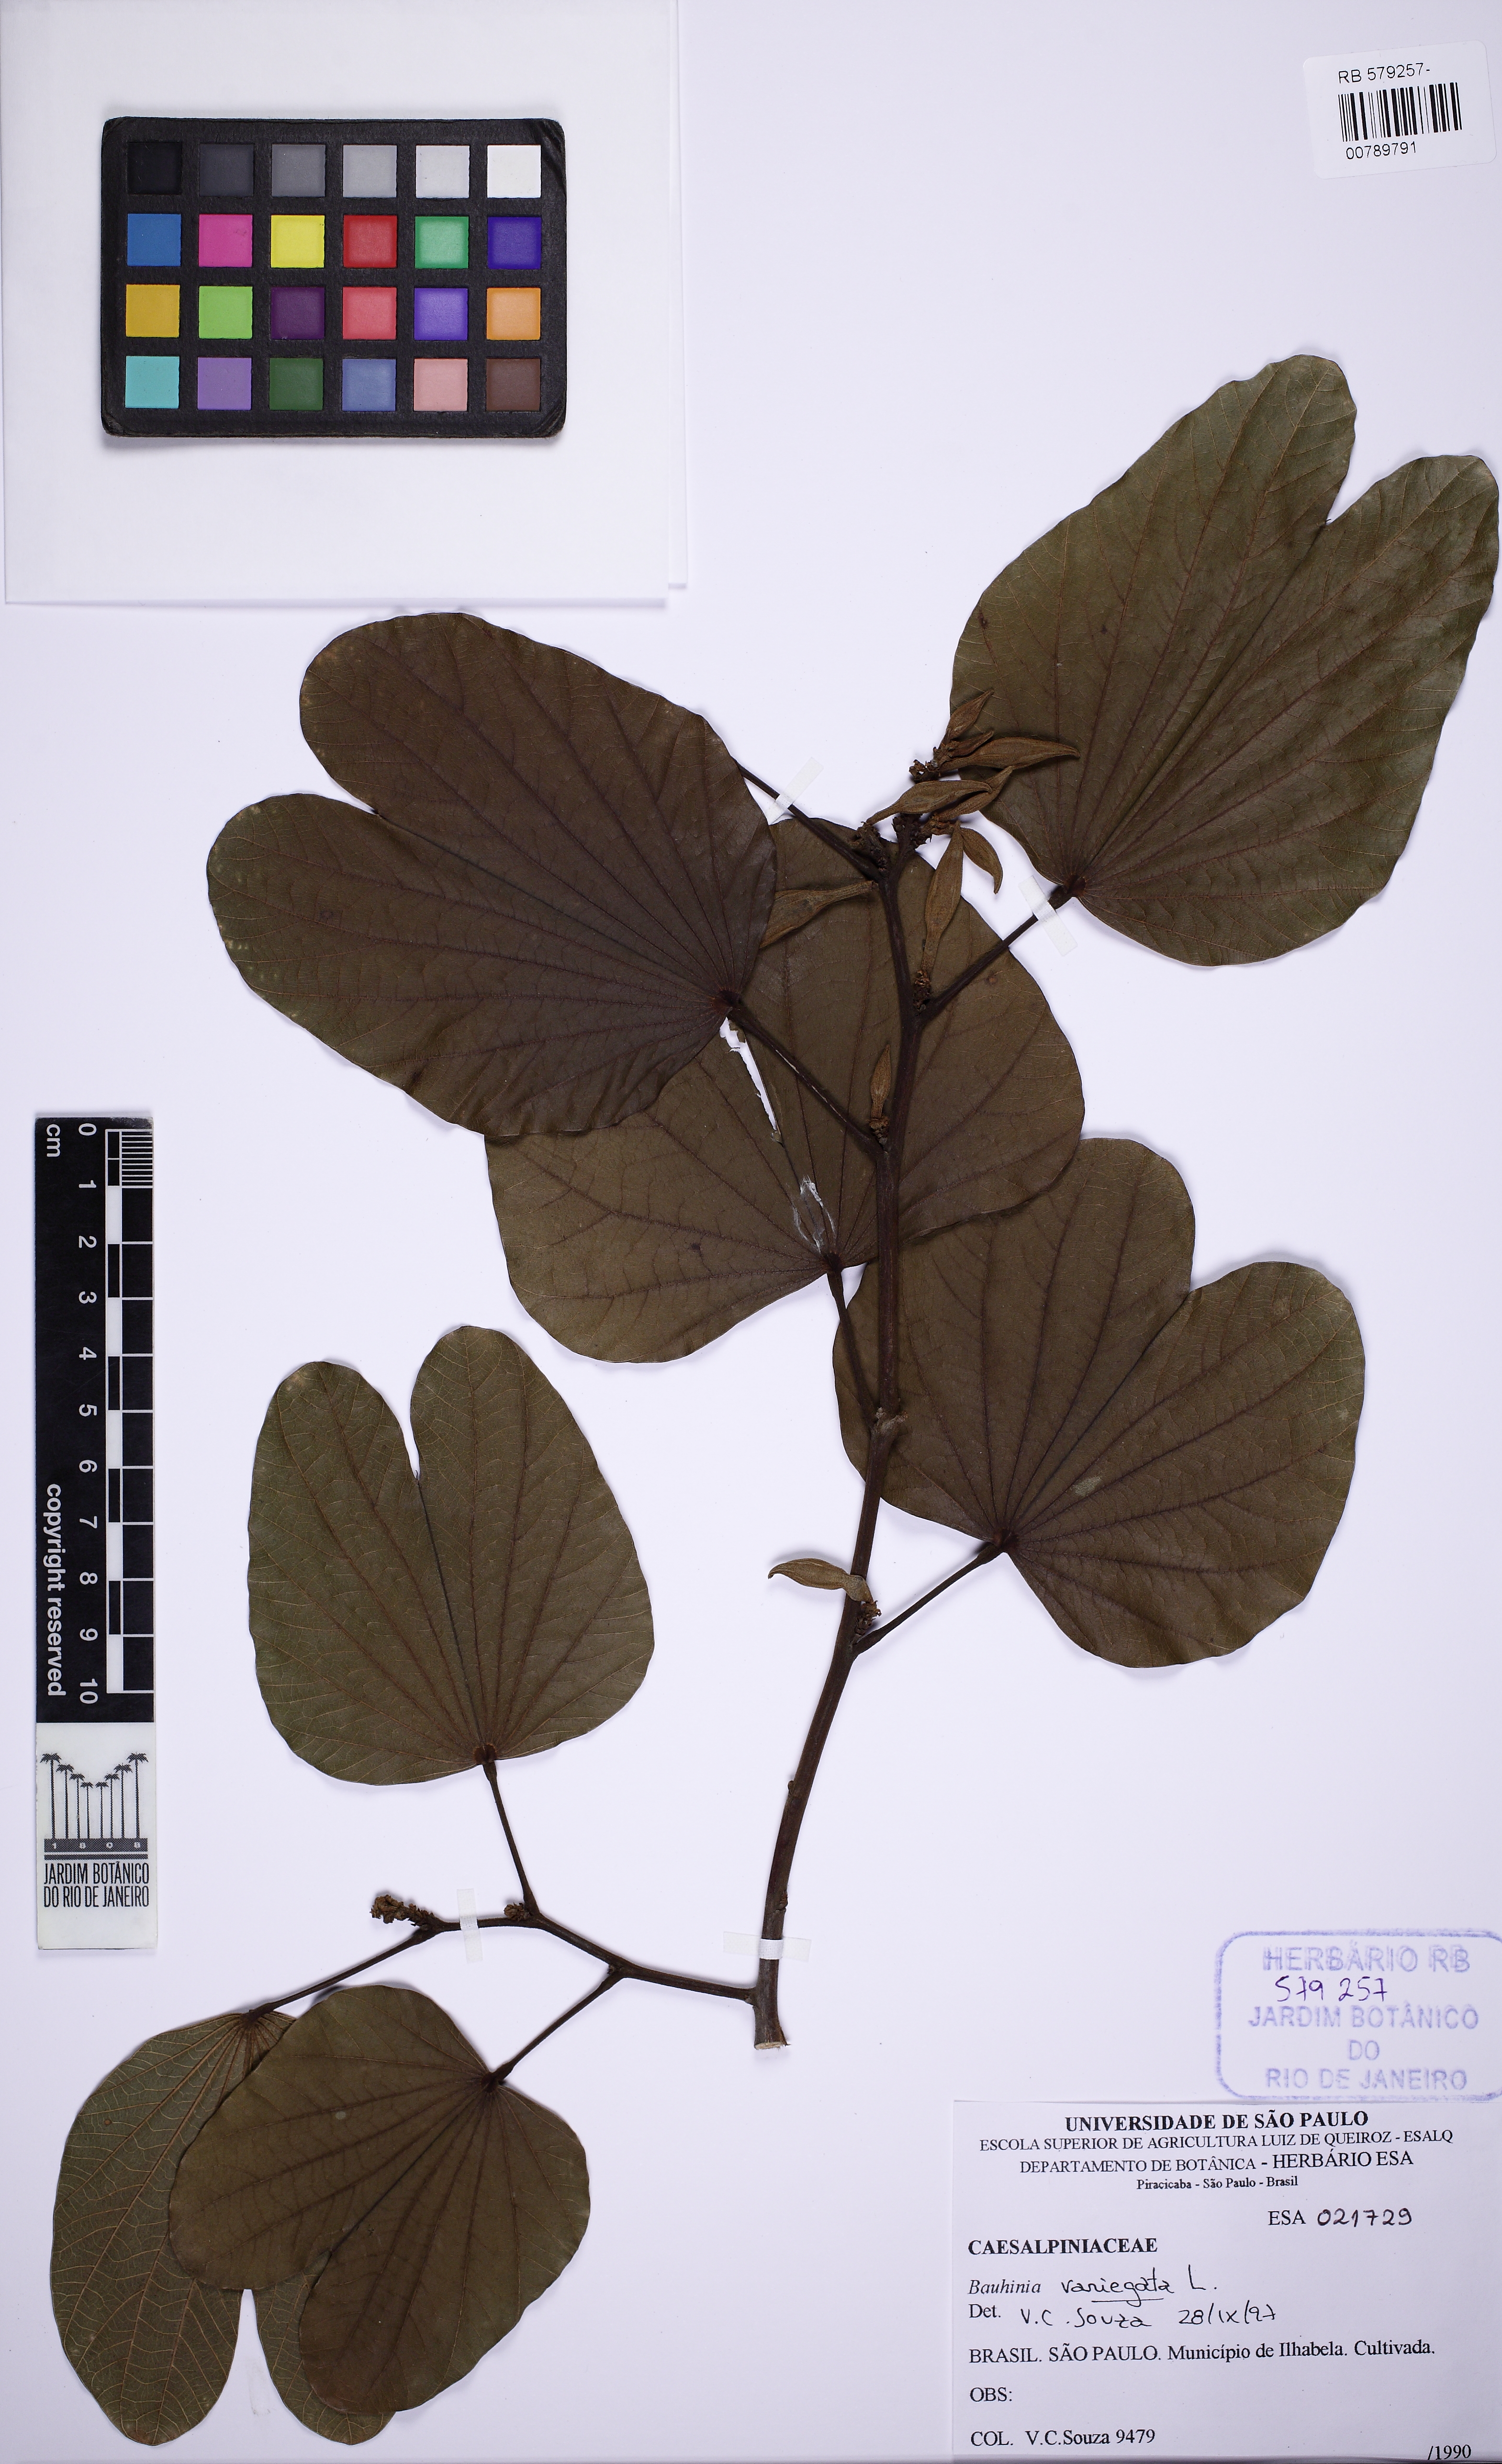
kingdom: Plantae
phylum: Tracheophyta
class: Magnoliopsida
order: Fabales
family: Fabaceae
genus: Bauhinia
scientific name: Bauhinia variegata
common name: Mountain ebony
